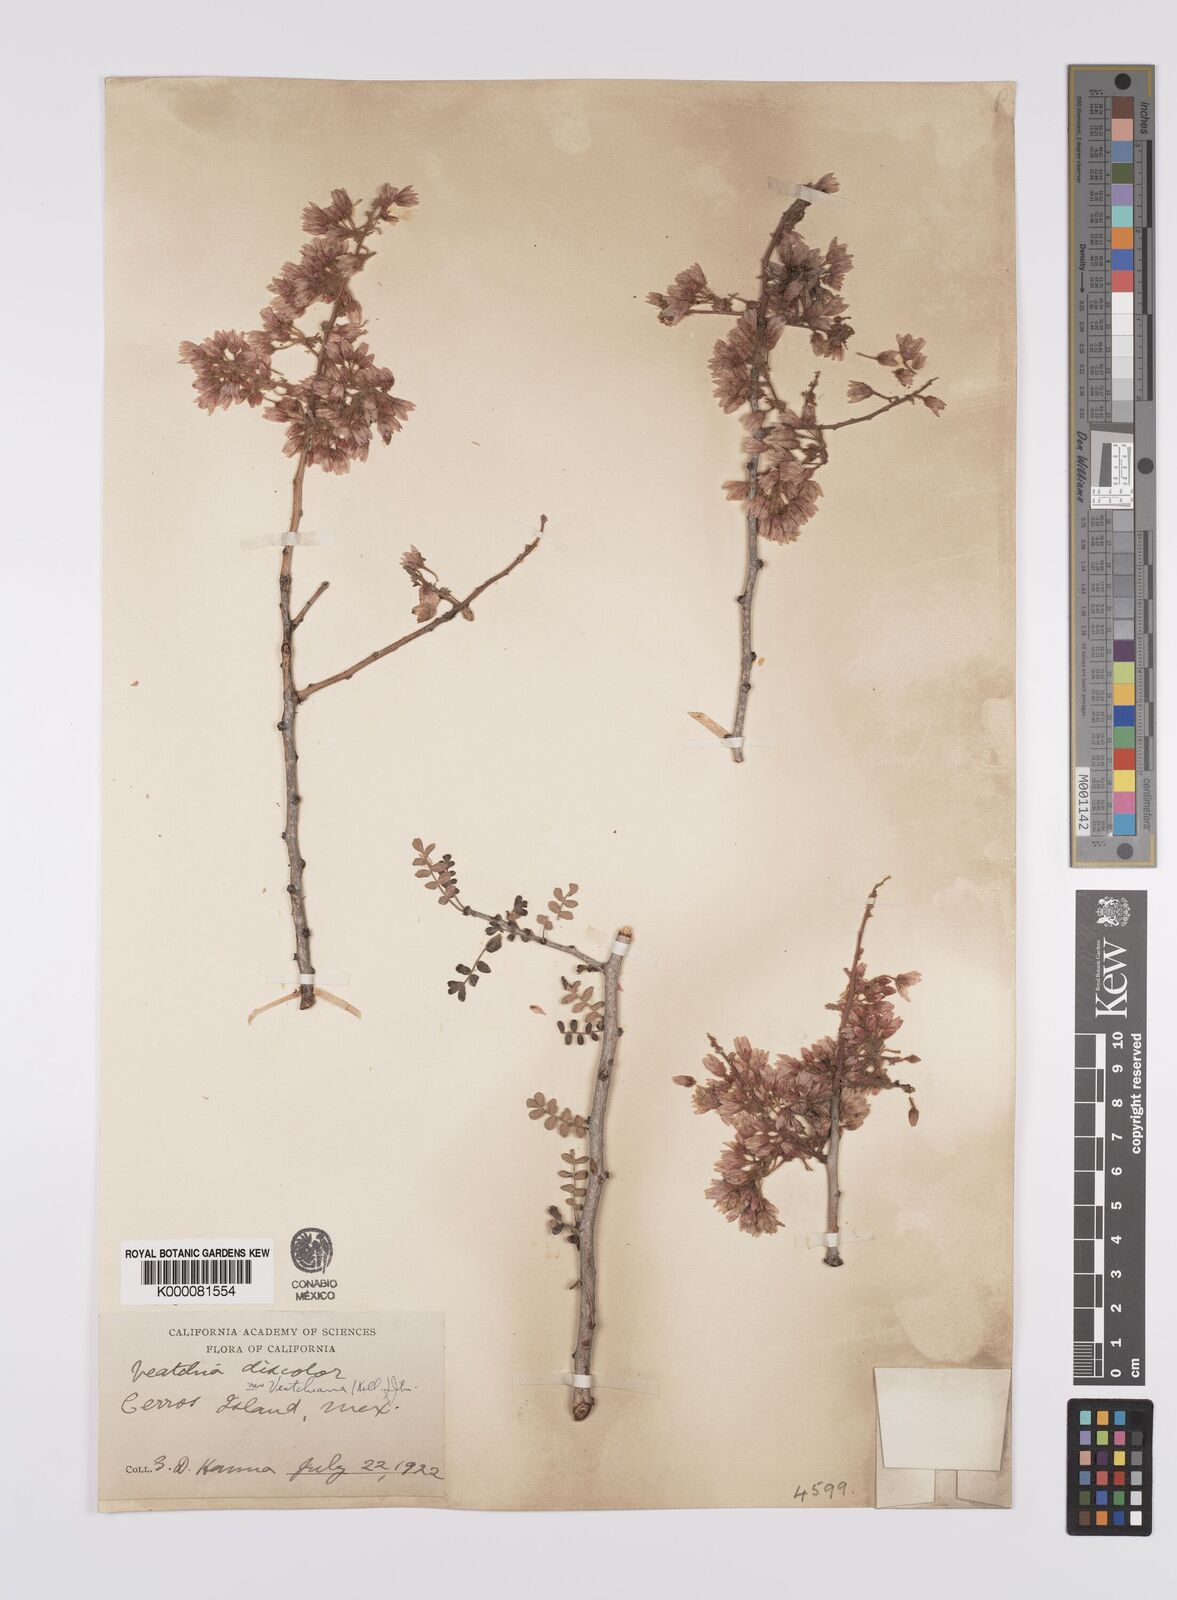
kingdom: Plantae
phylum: Tracheophyta
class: Magnoliopsida
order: Sapindales
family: Anacardiaceae
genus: Pachycormus
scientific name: Pachycormus
